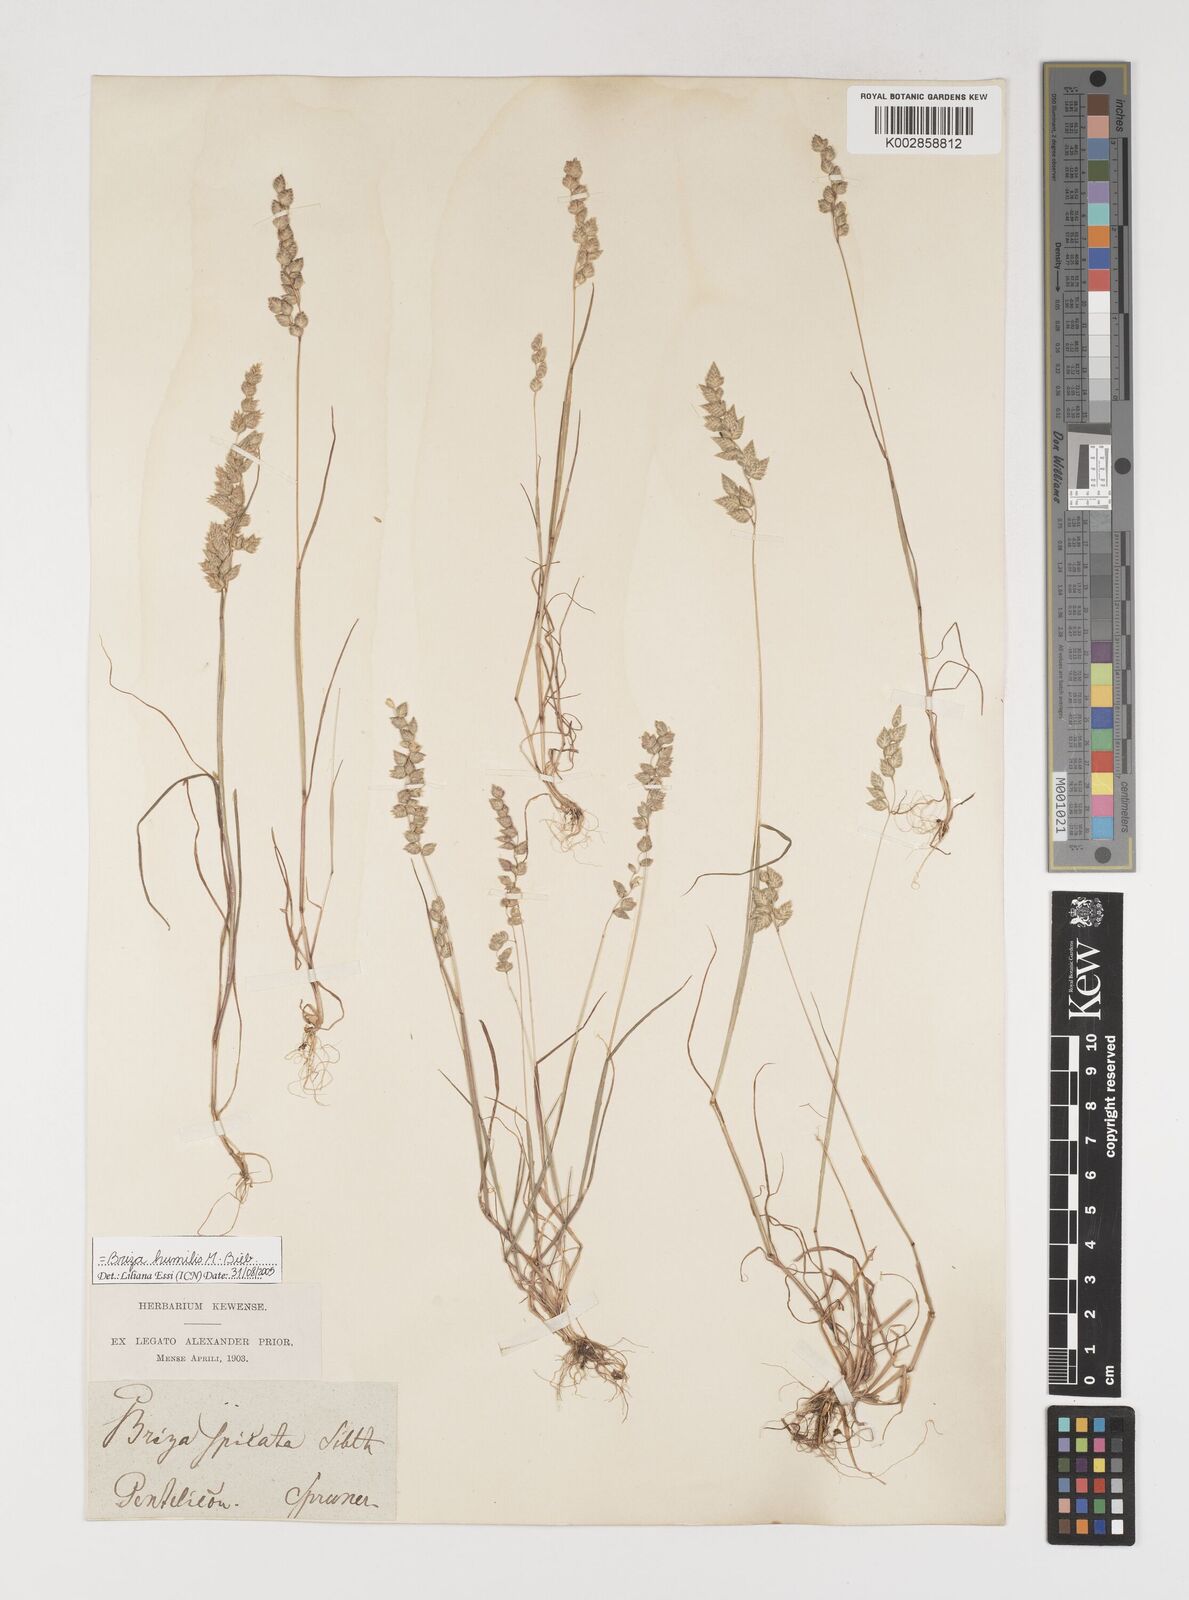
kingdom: Plantae
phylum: Tracheophyta
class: Liliopsida
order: Poales
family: Poaceae
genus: Briza
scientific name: Briza humilis
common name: Spiked quaking grass
